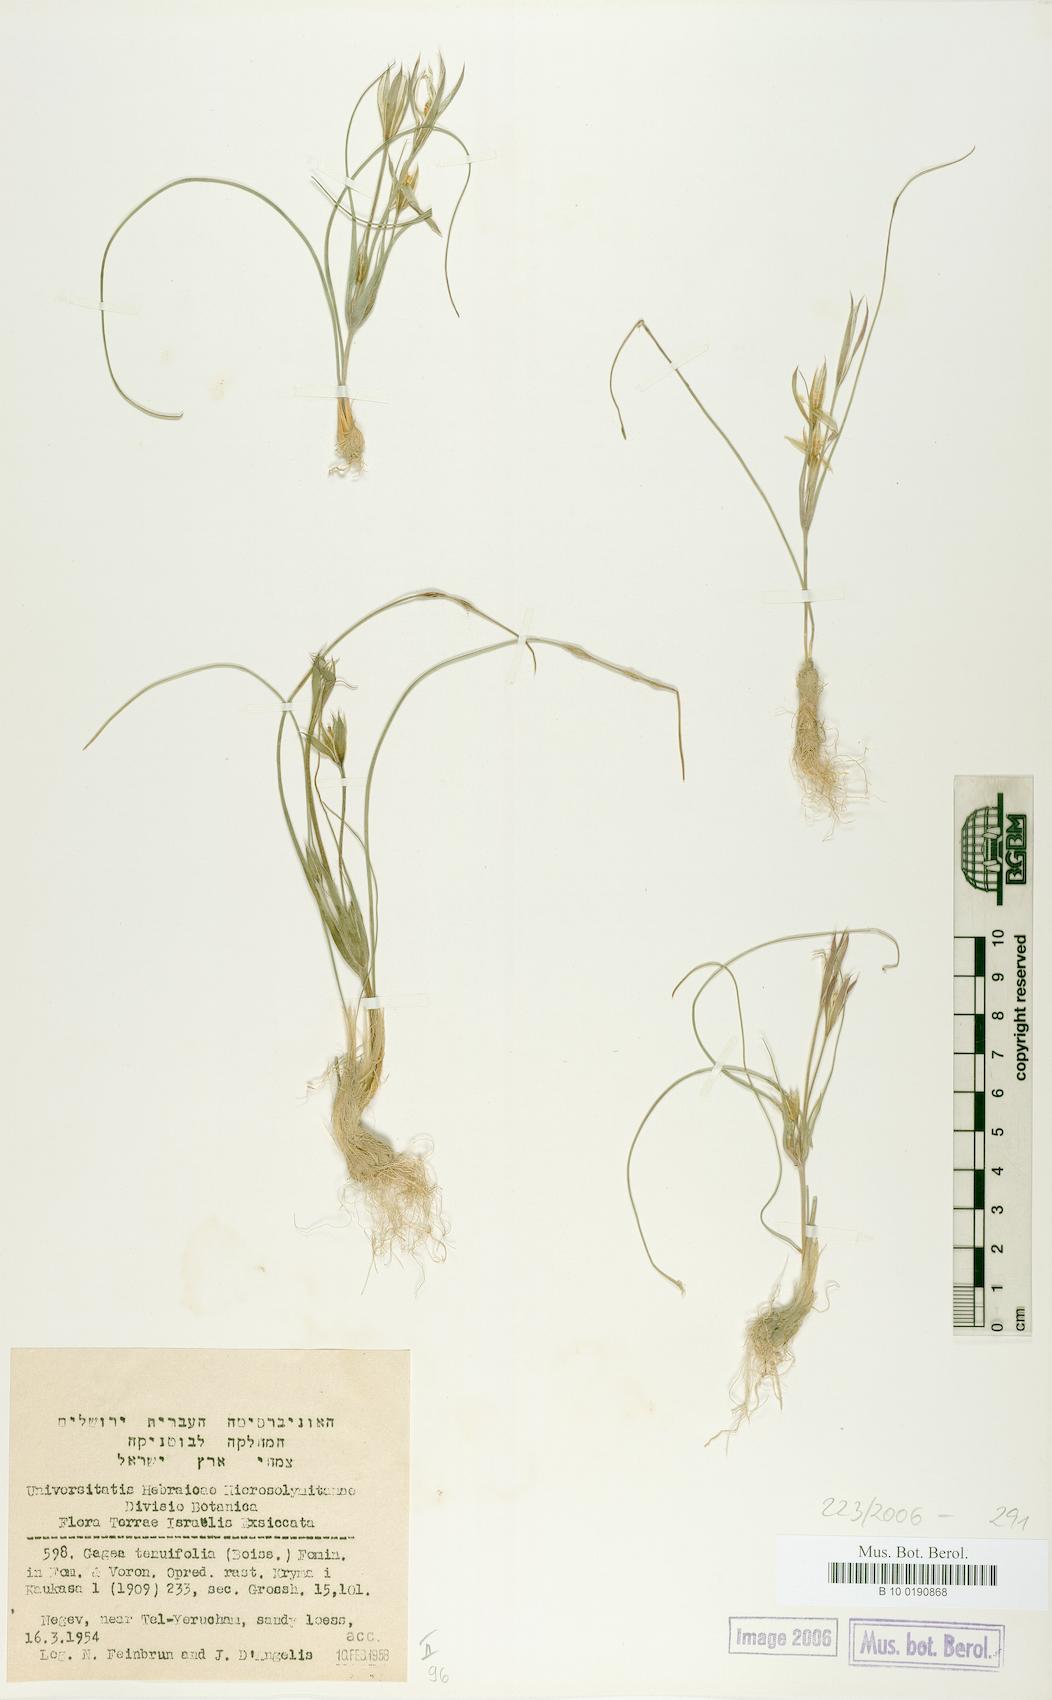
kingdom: Plantae
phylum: Tracheophyta
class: Liliopsida
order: Liliales
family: Liliaceae
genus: Gagea
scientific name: Gagea reticulata
